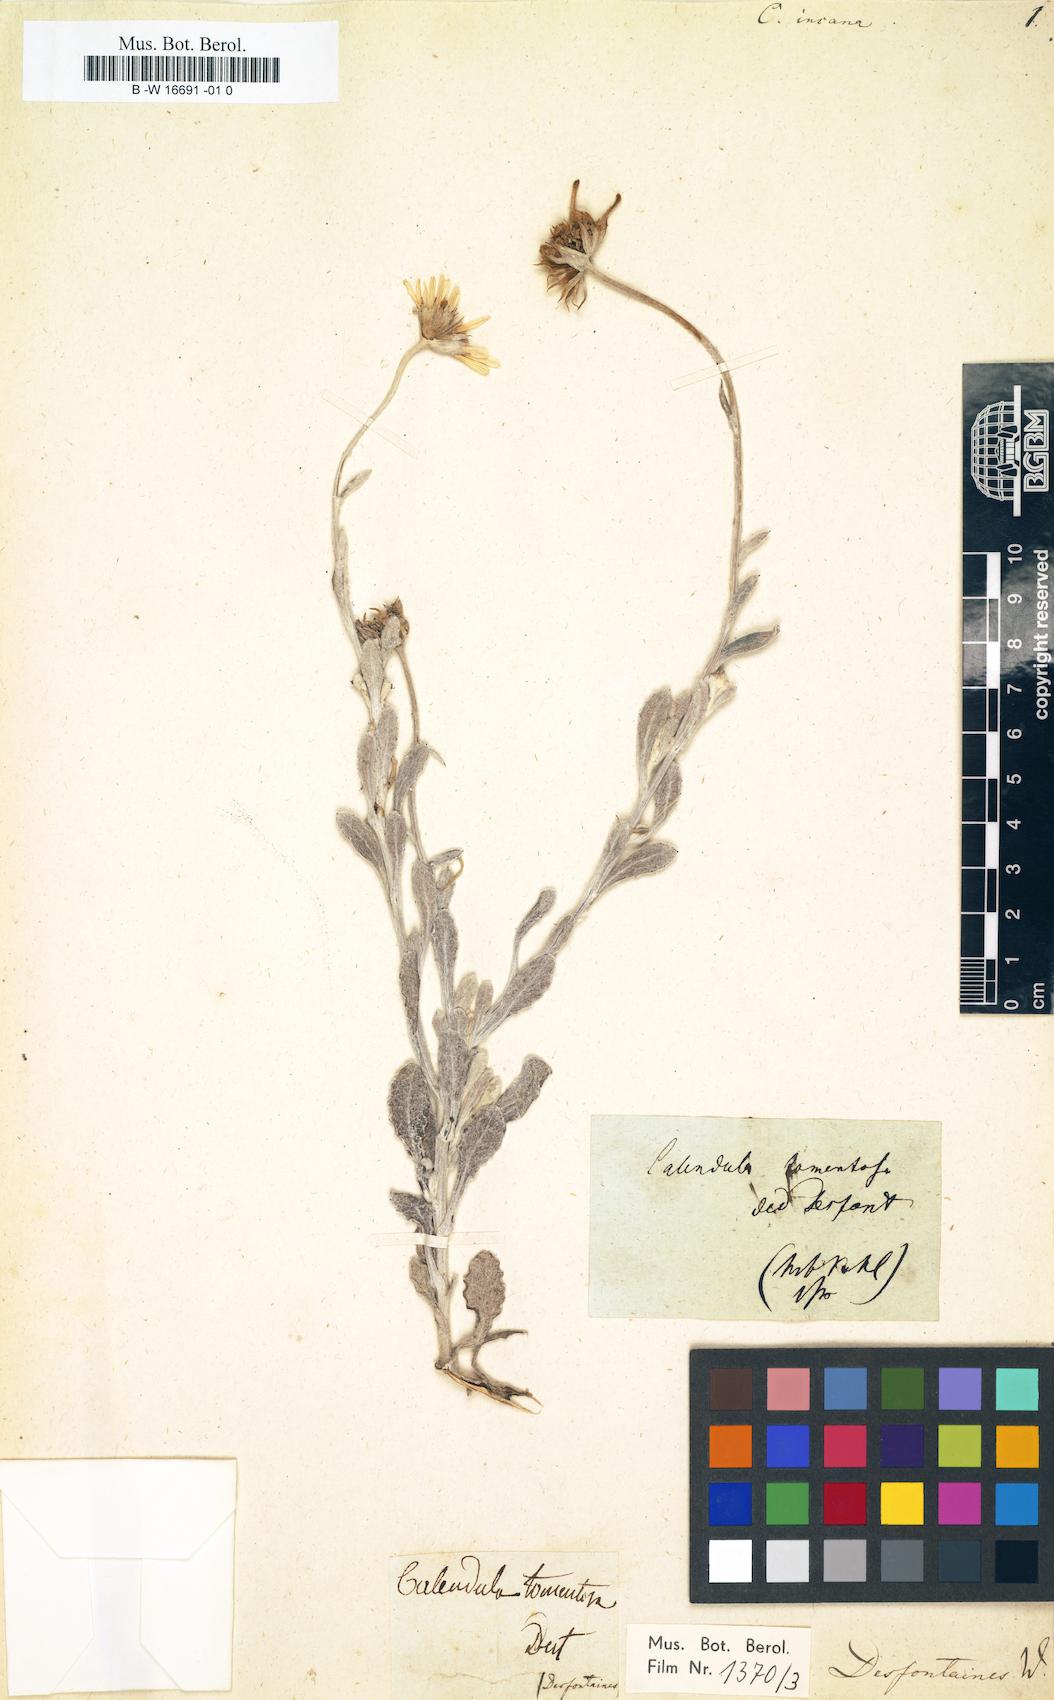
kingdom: Plantae
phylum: Tracheophyta
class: Magnoliopsida
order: Asterales
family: Asteraceae
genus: Calendula
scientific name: Calendula suffruticosa
